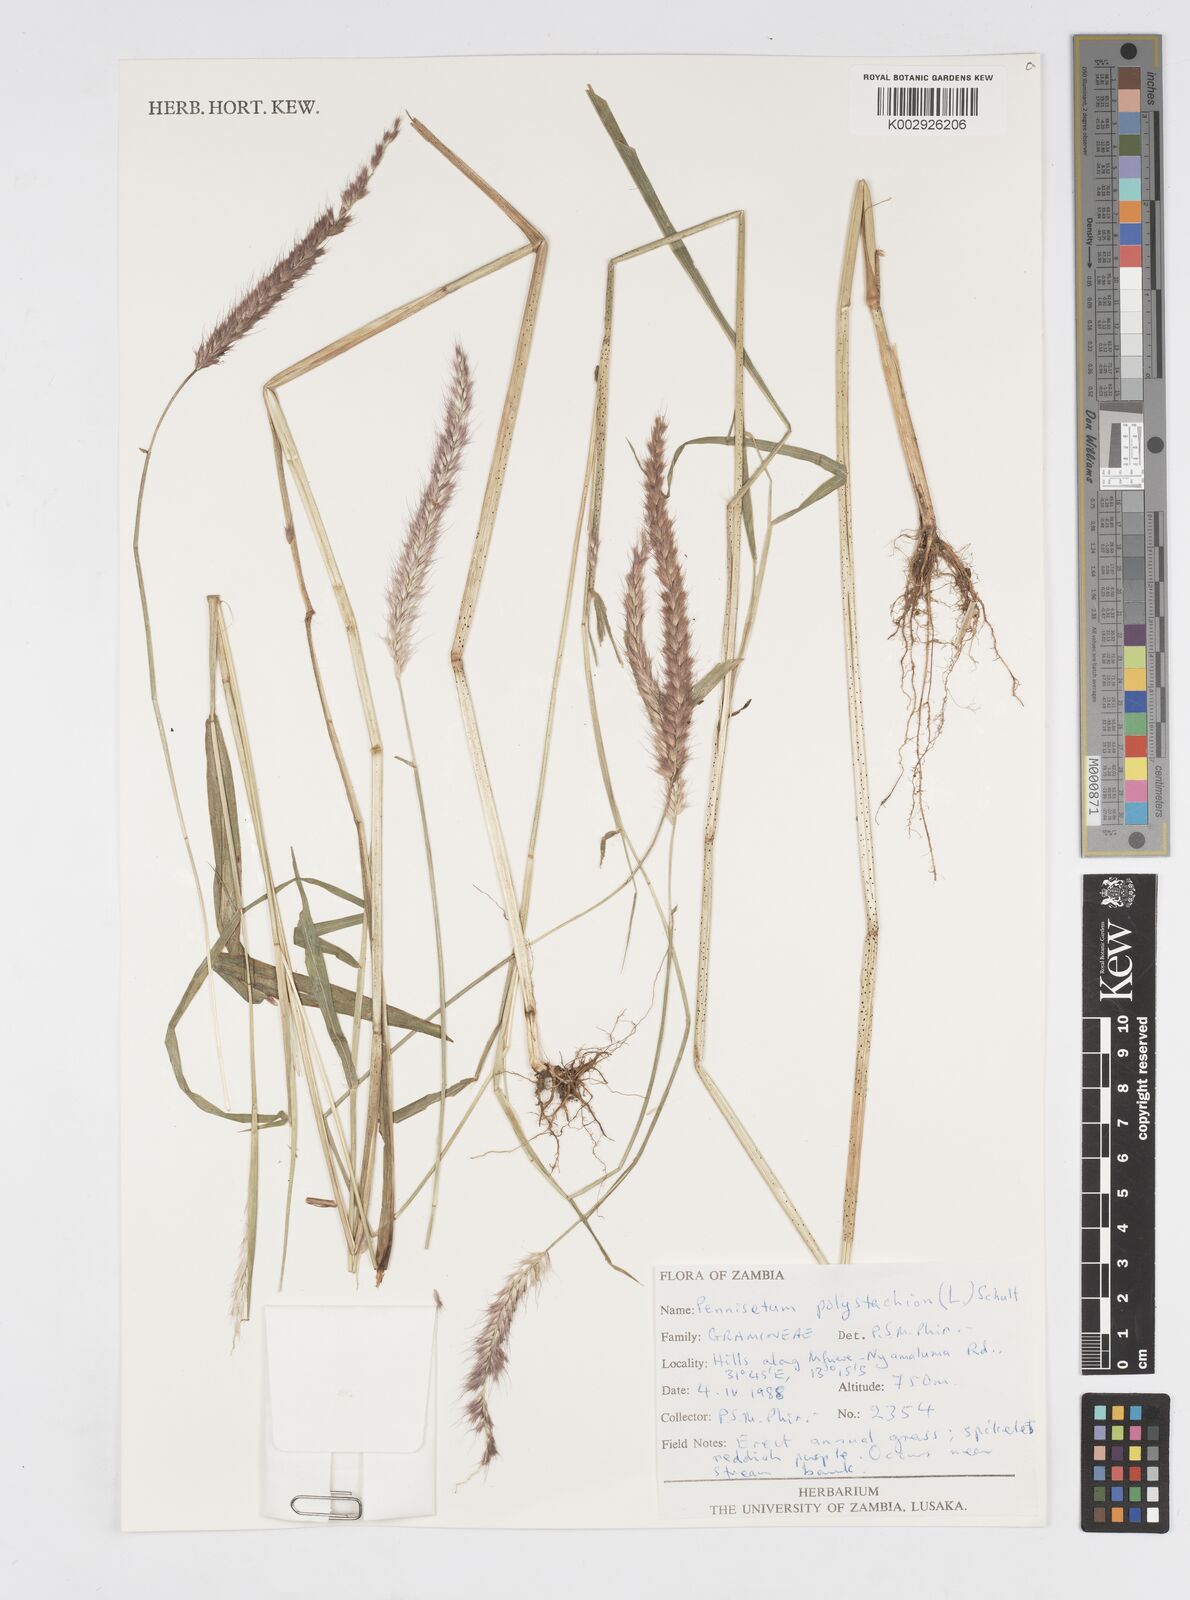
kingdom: Plantae
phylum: Tracheophyta
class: Liliopsida
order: Poales
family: Poaceae
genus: Setaria
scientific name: Setaria parviflora
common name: Knotroot bristle-grass
